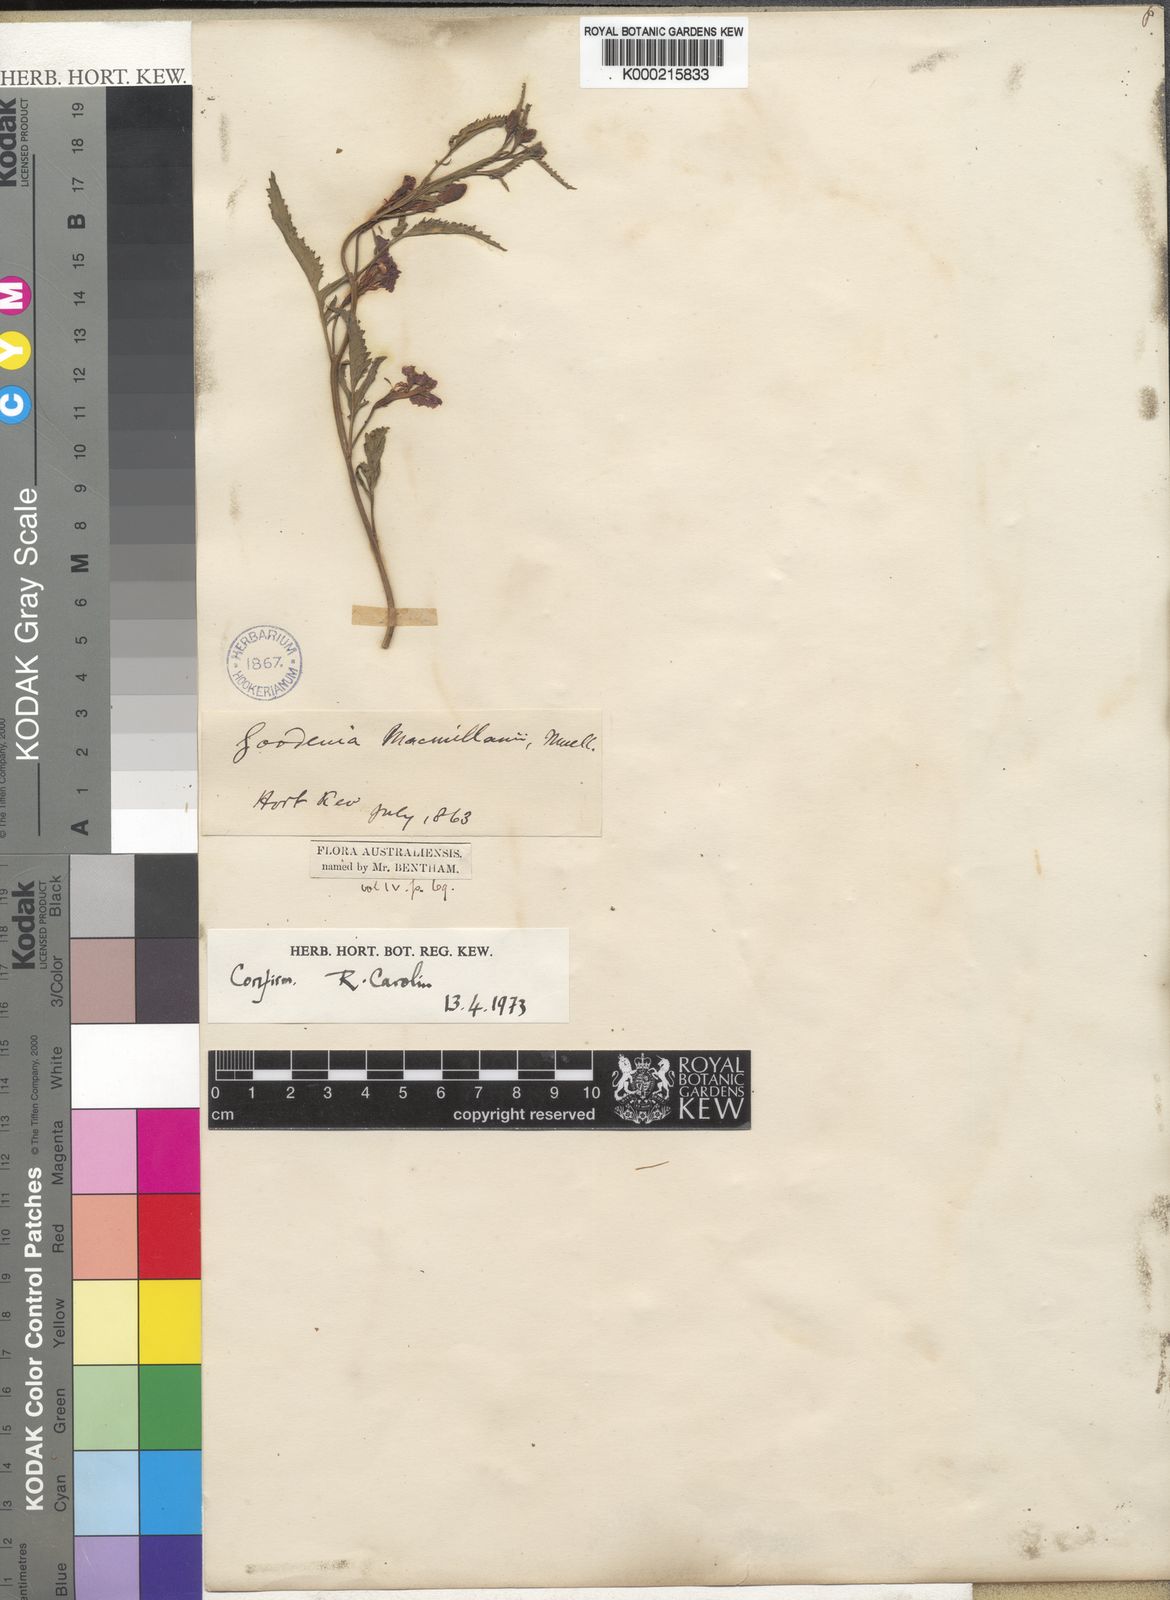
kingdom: Plantae
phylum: Tracheophyta
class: Magnoliopsida
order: Asterales
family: Goodeniaceae
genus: Goodenia
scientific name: Goodenia macmillanii
